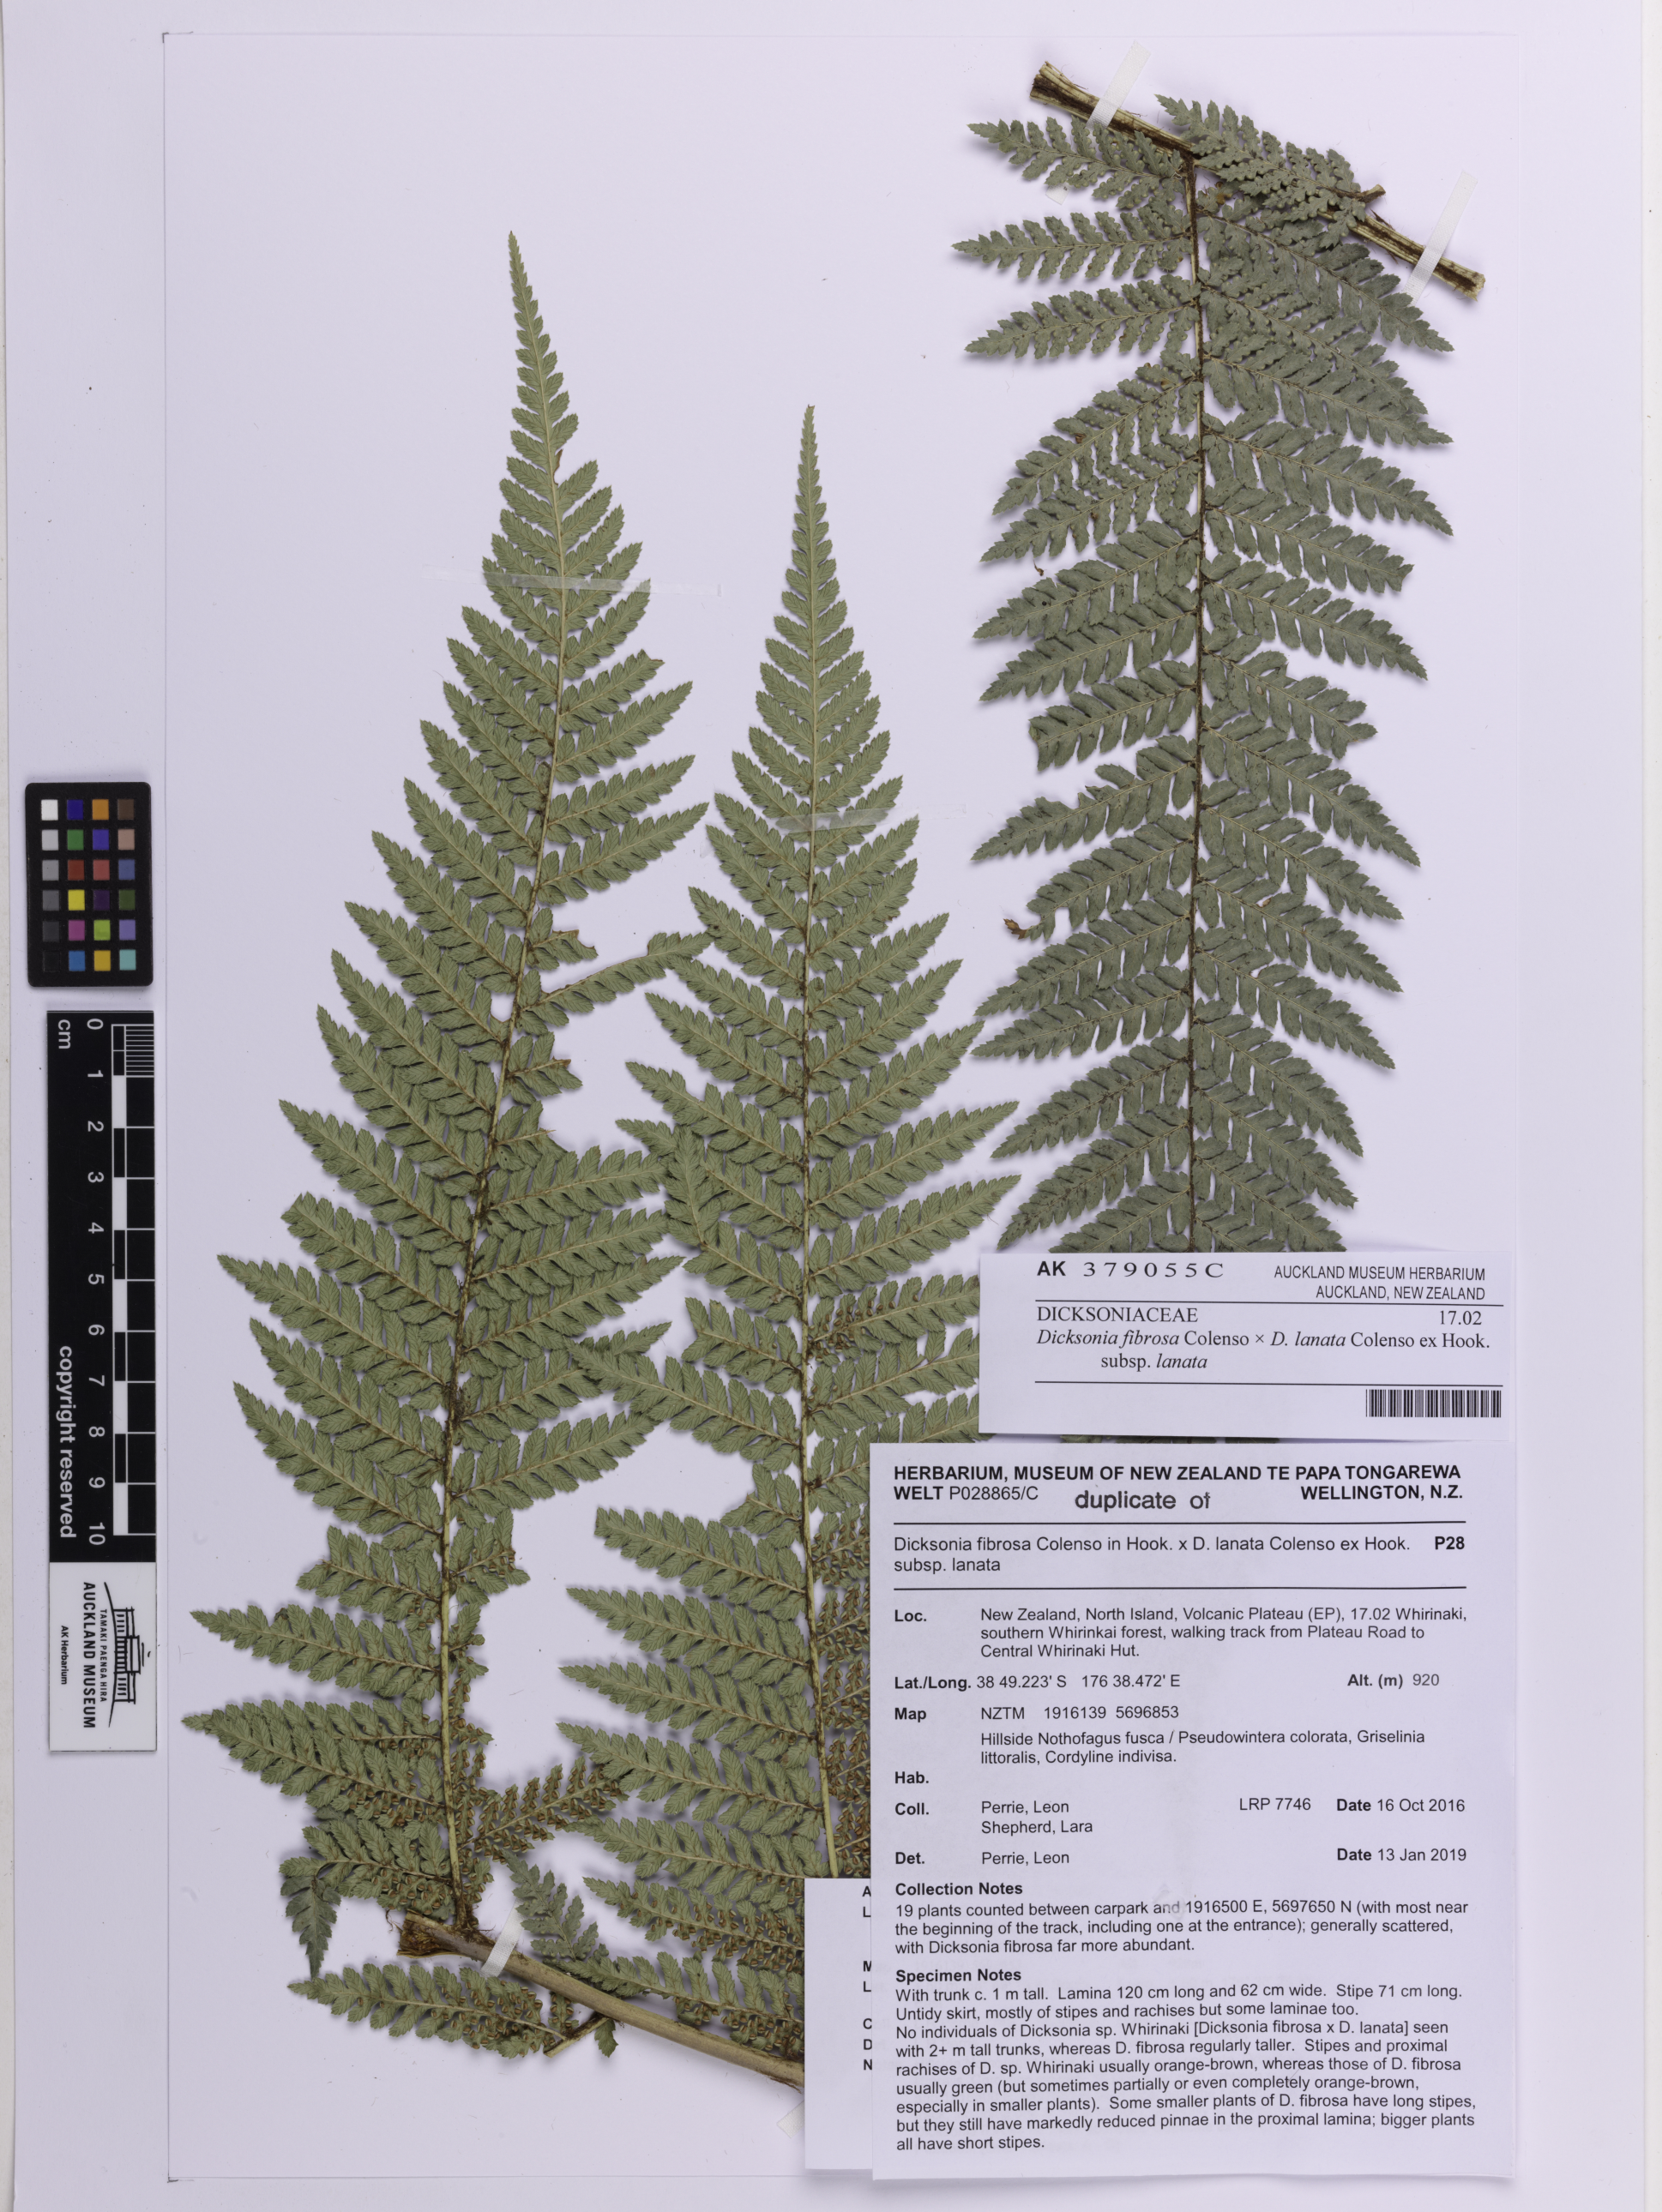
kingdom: Plantae
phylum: Tracheophyta
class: Polypodiopsida
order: Cyatheales
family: Dicksoniaceae
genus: Dicksonia
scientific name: Dicksonia
